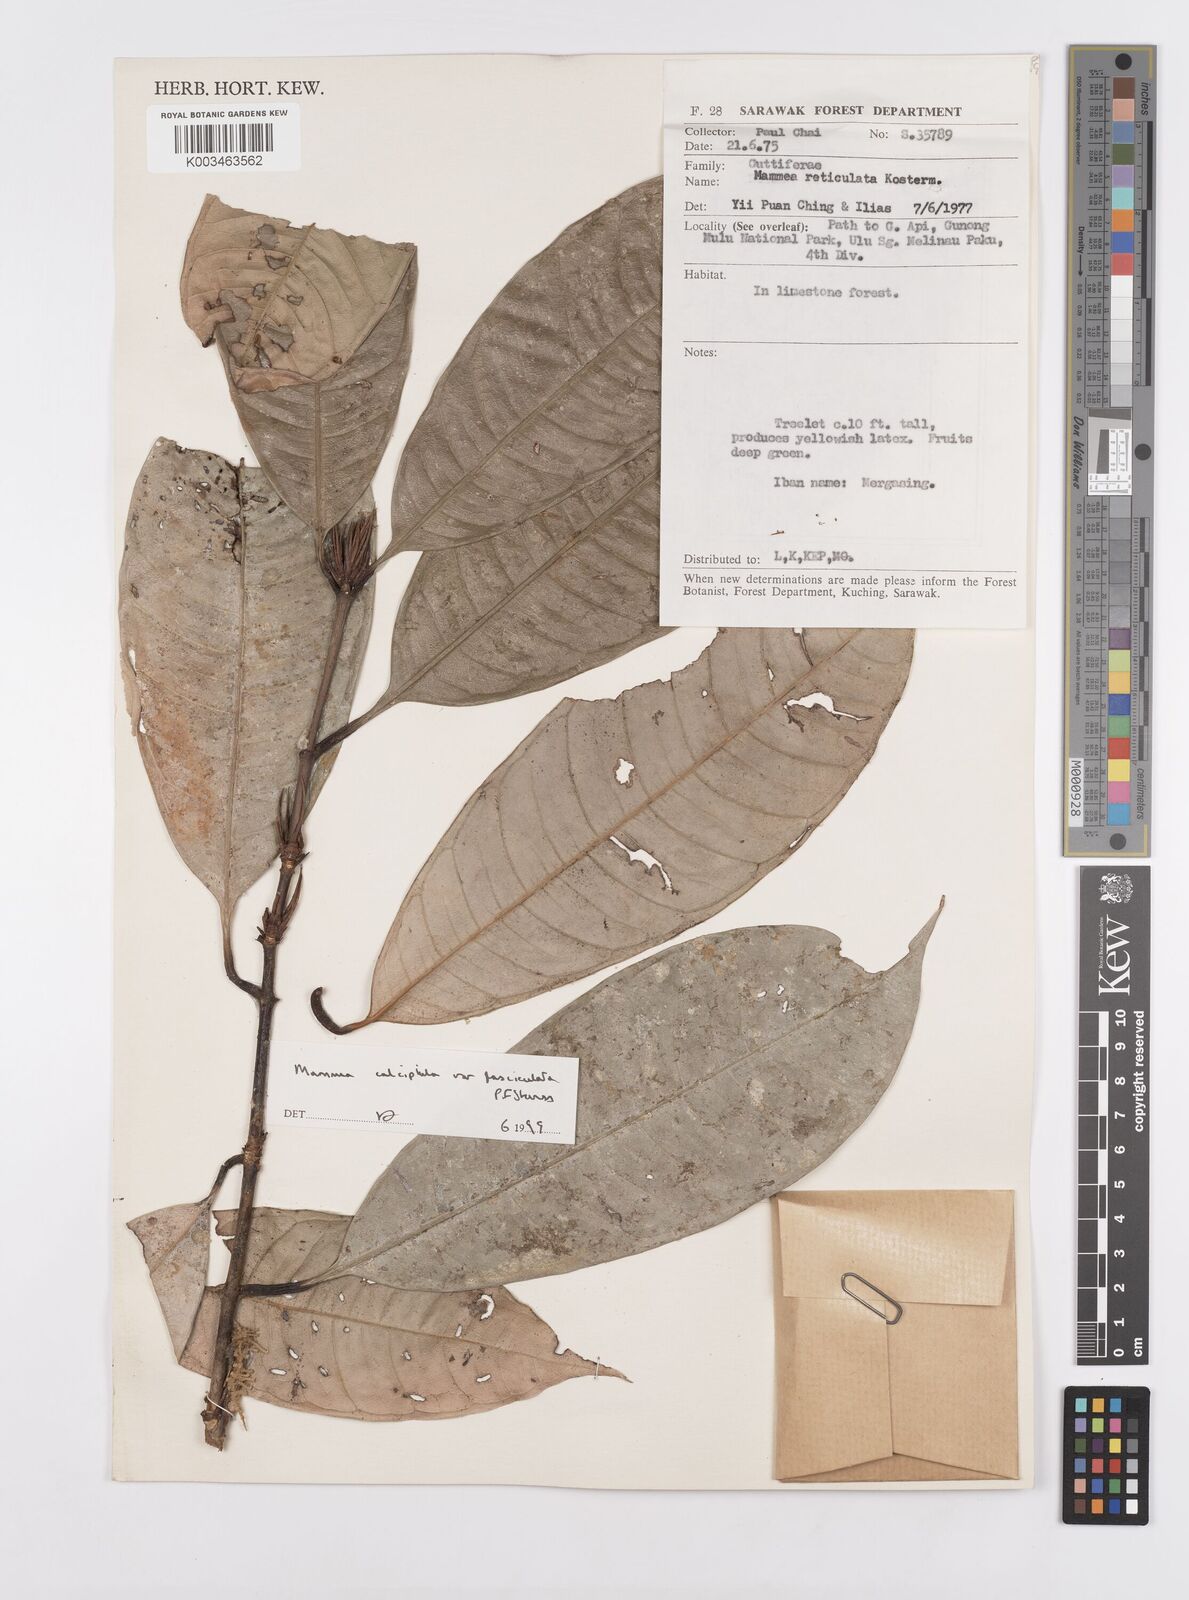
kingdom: Plantae
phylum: Tracheophyta
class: Magnoliopsida
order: Malpighiales
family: Calophyllaceae
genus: Mammea
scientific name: Mammea calciphila
